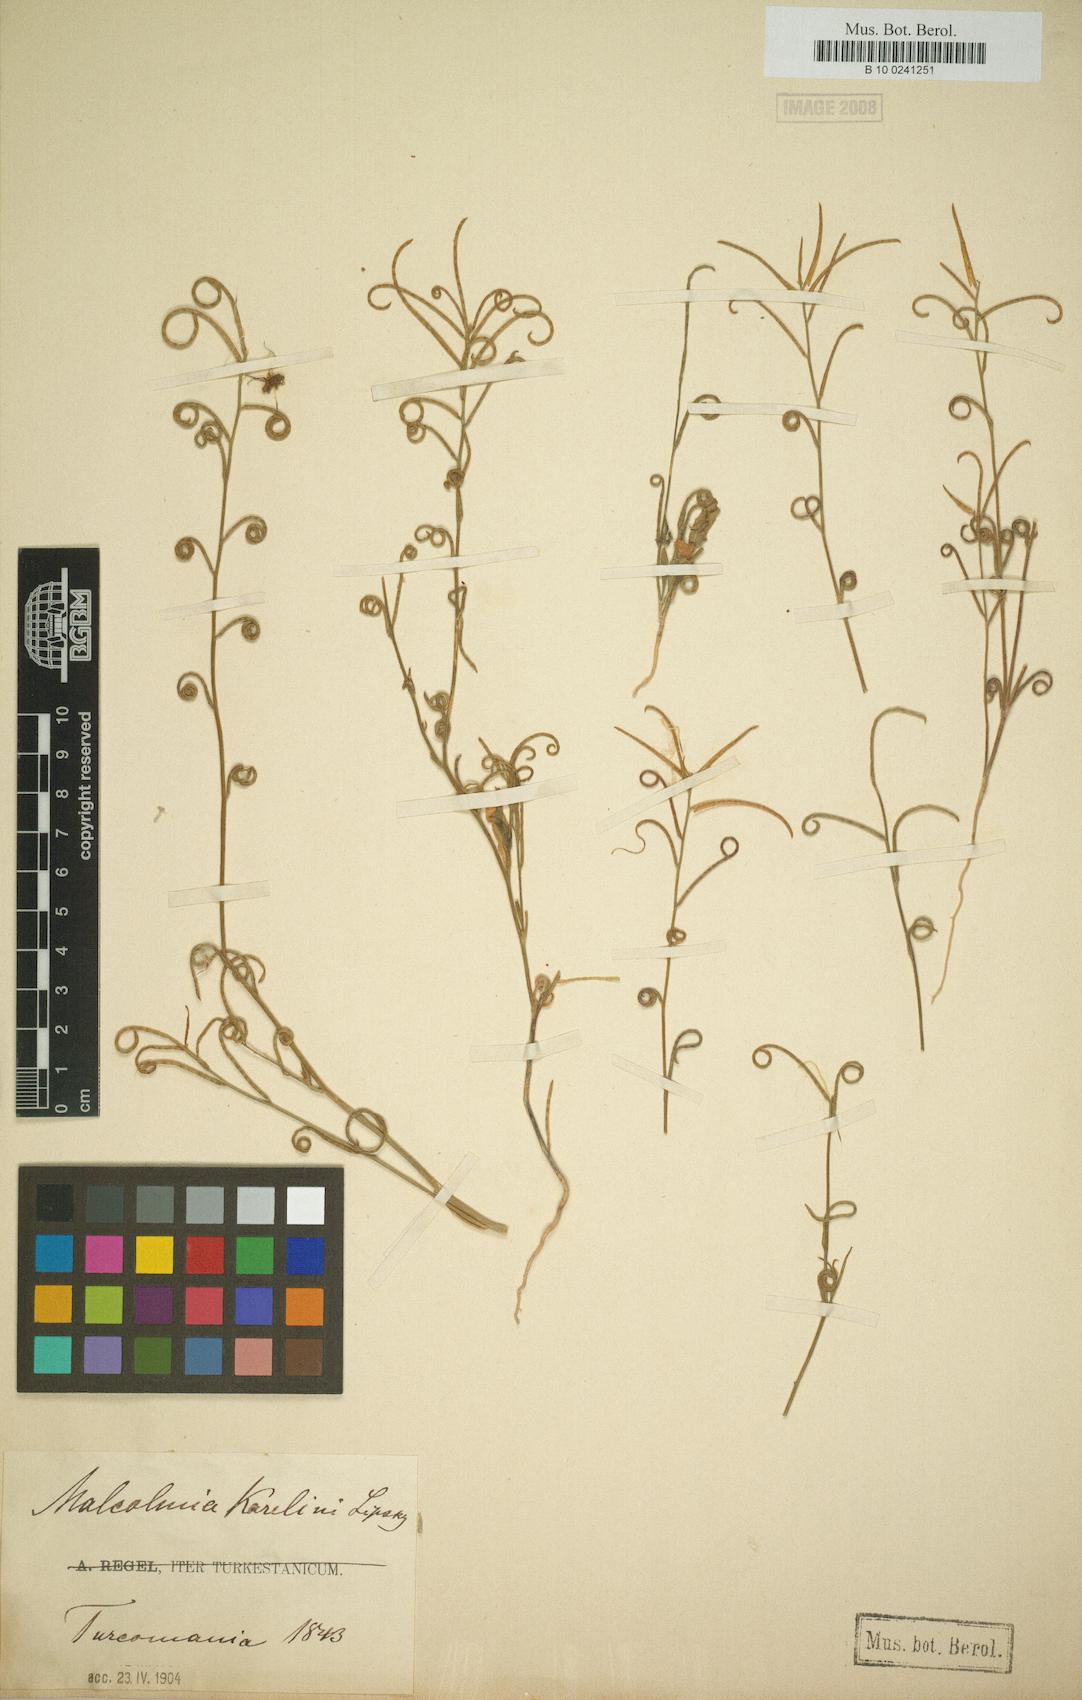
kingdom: Plantae
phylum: Tracheophyta
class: Magnoliopsida
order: Brassicales
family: Brassicaceae
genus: Strigosella
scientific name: Strigosella brevipes
